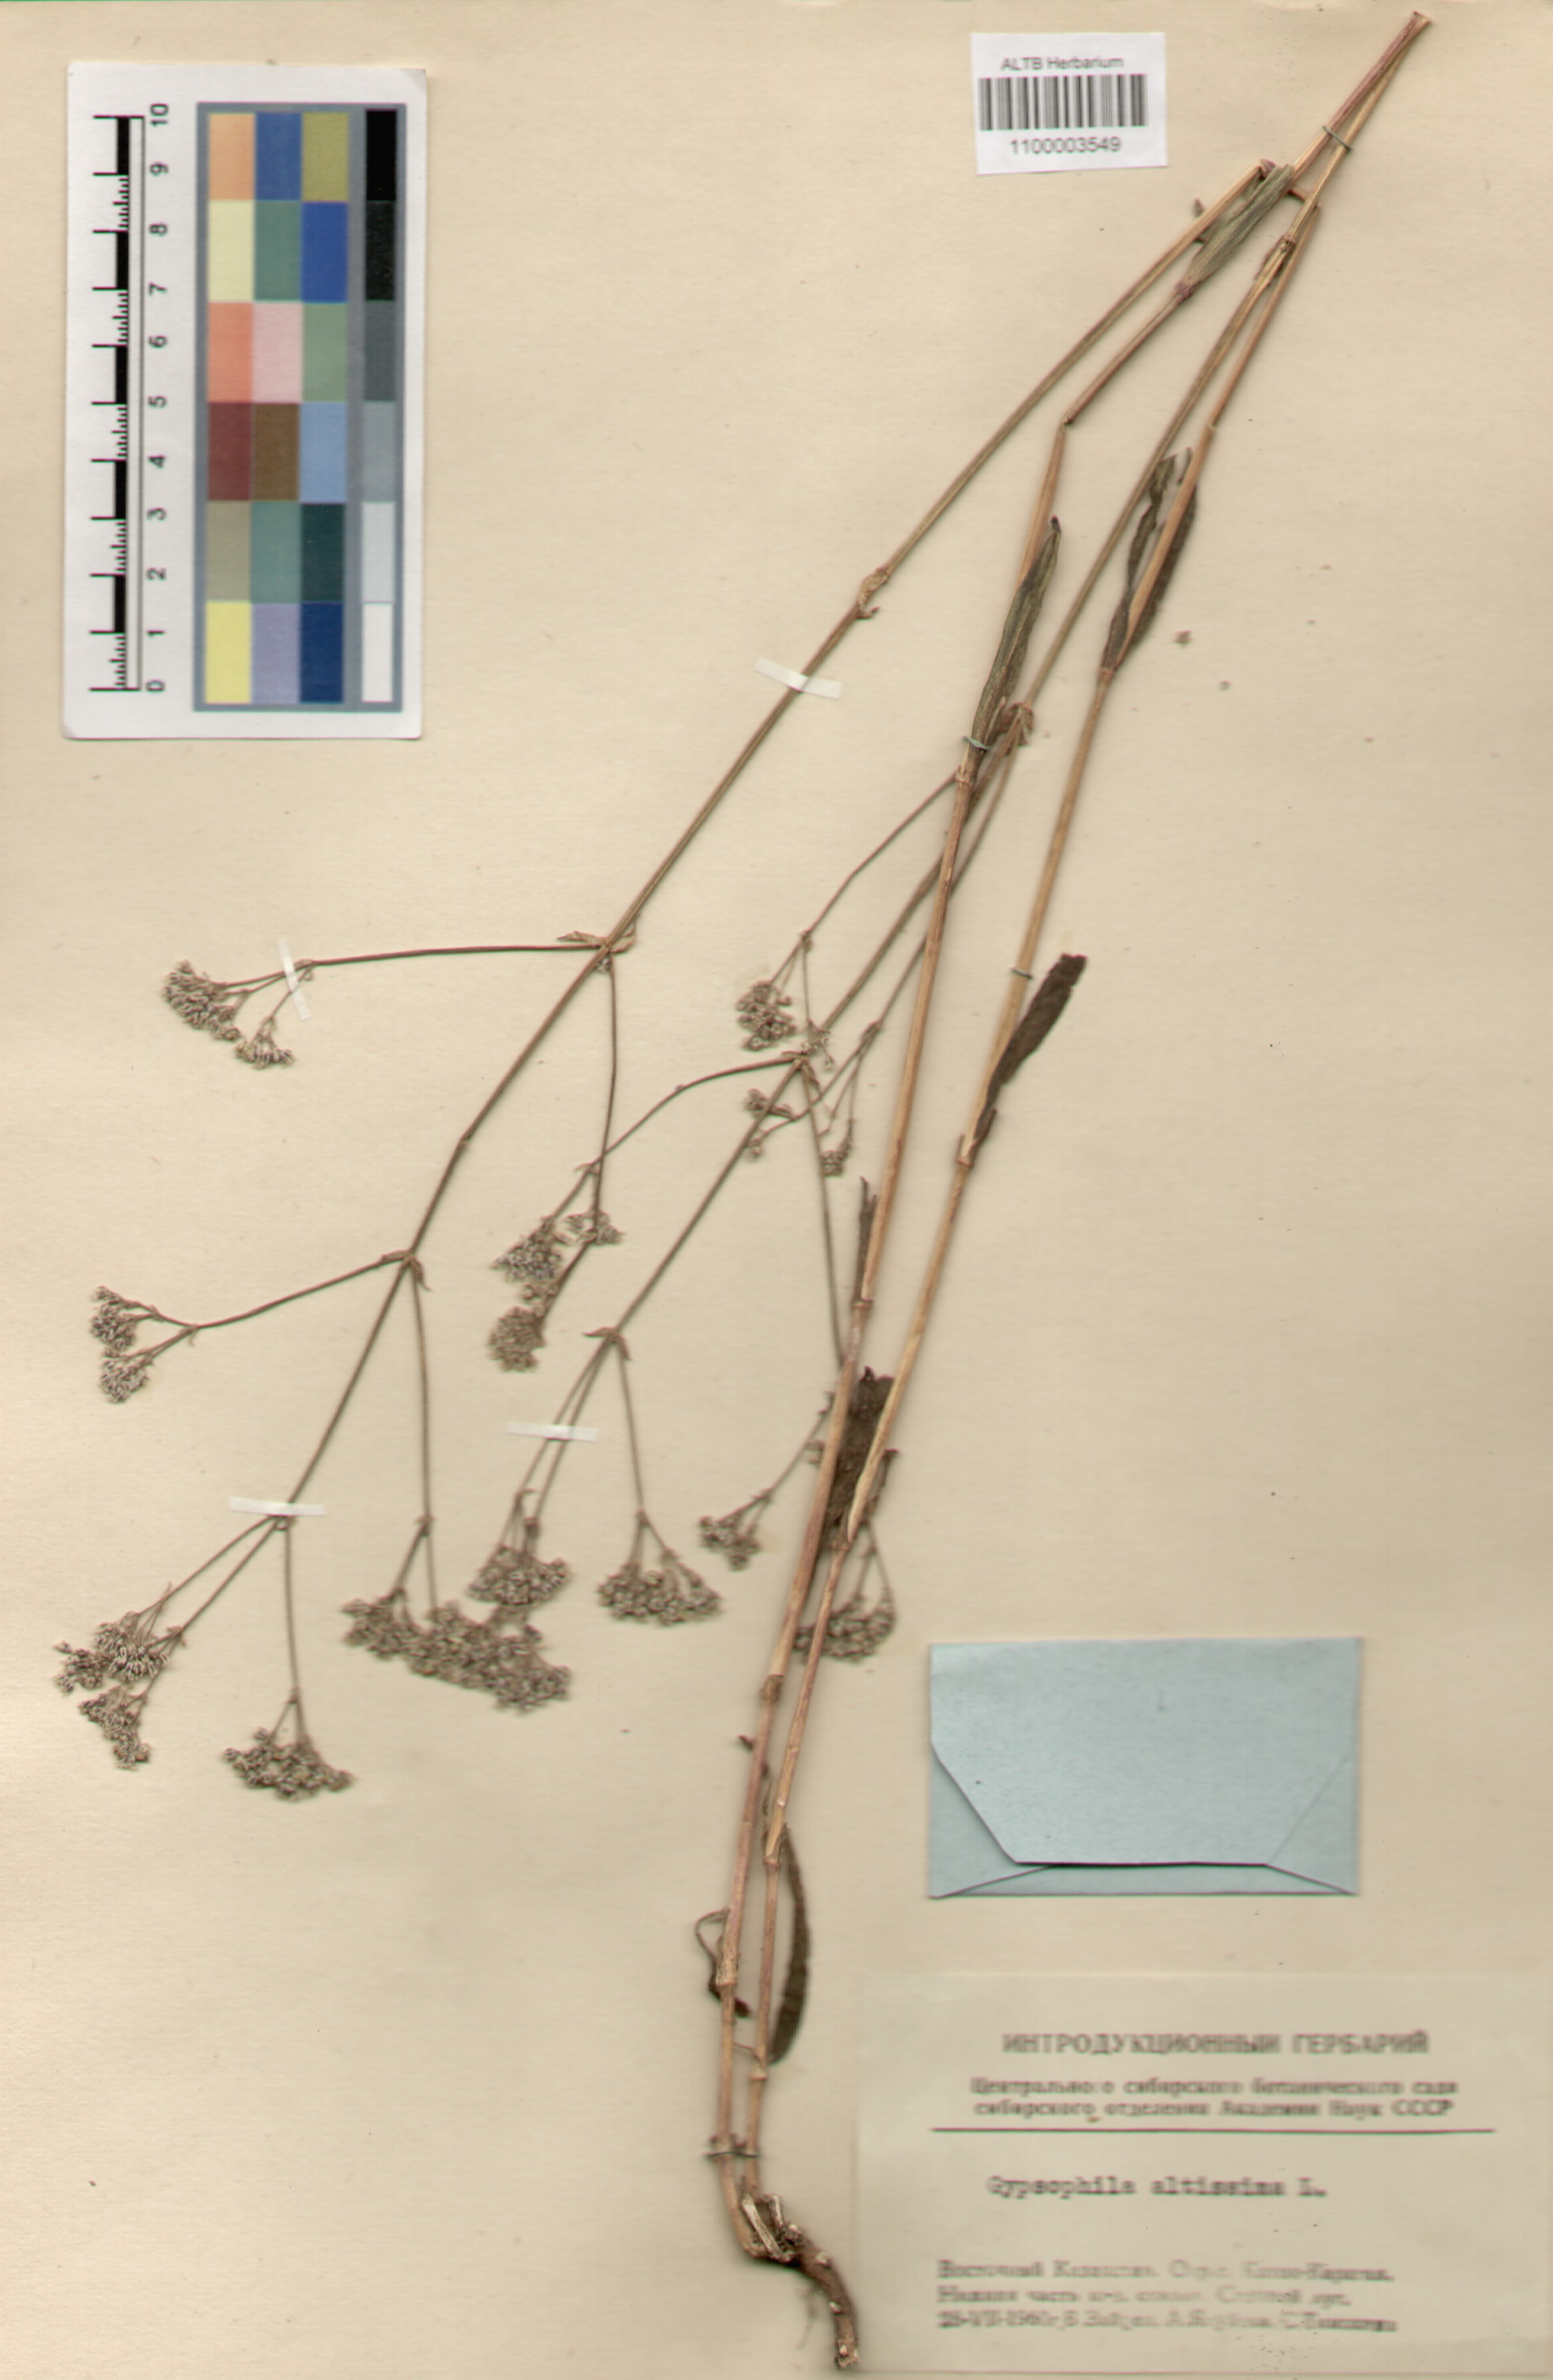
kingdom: Plantae
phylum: Tracheophyta
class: Magnoliopsida
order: Caryophyllales
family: Caryophyllaceae
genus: Gypsophila
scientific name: Gypsophila altissima
